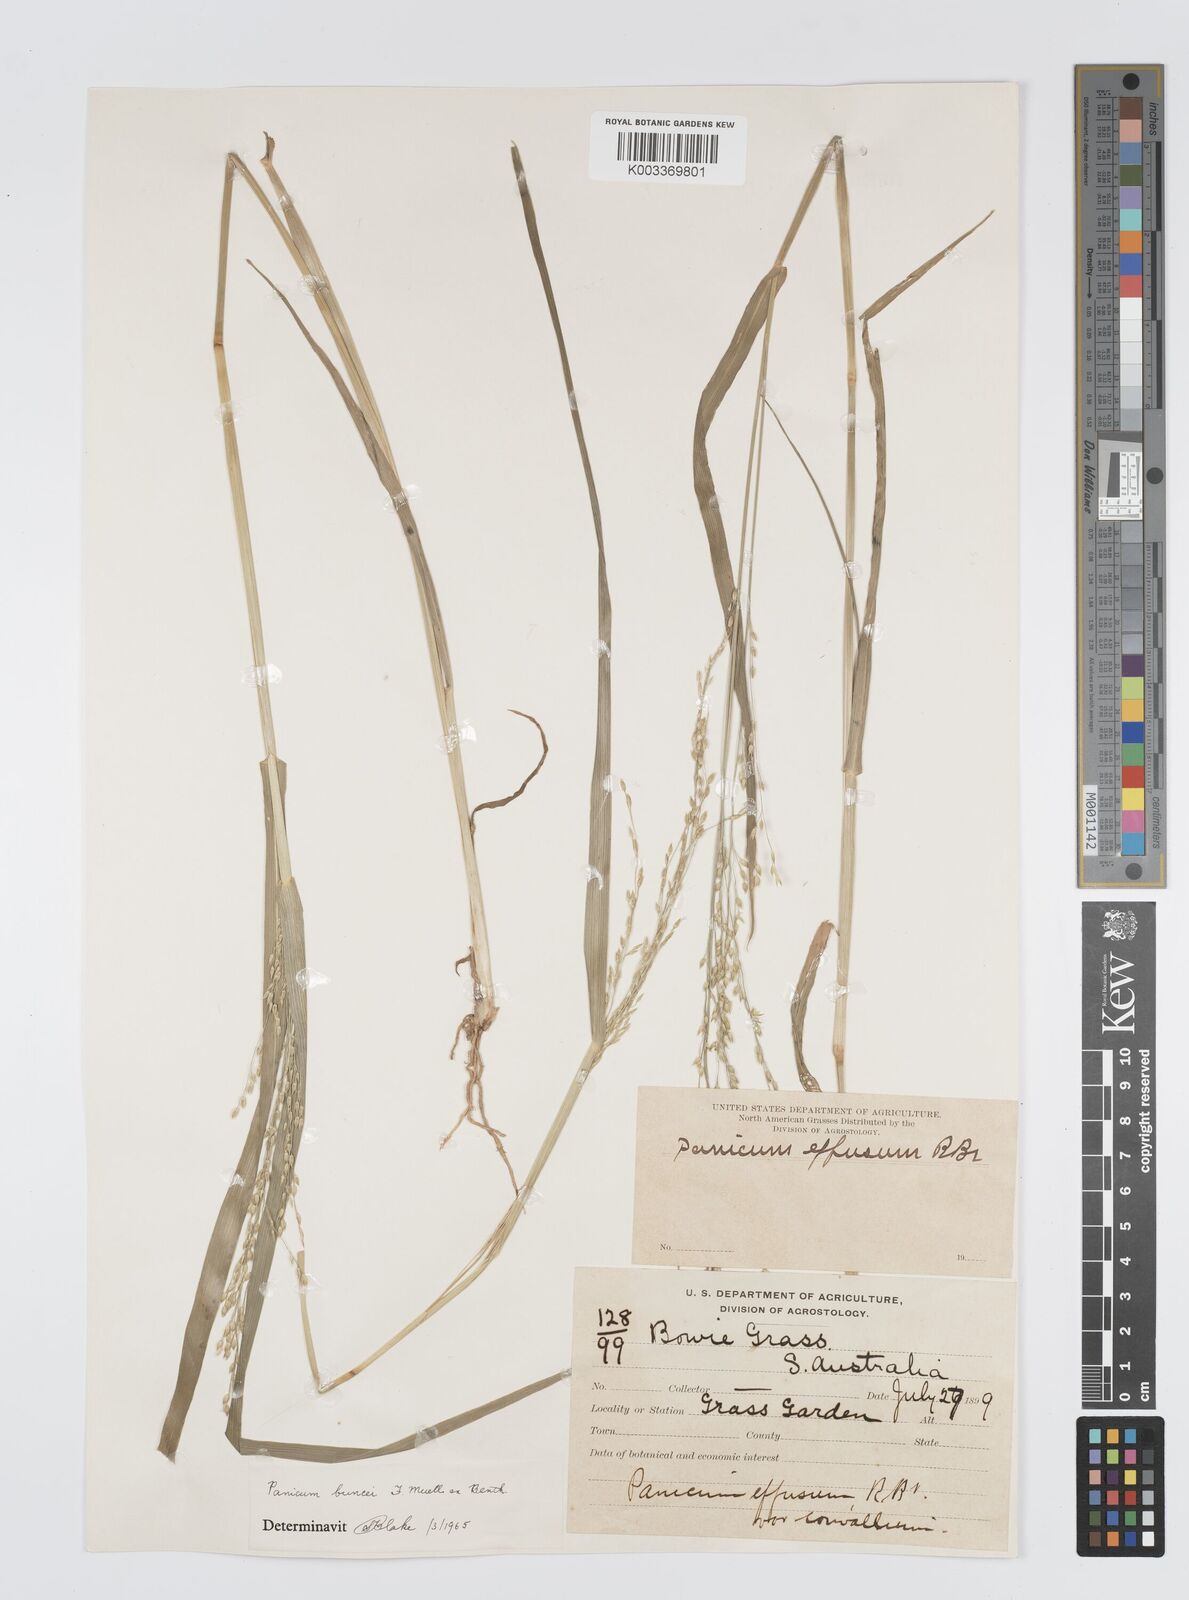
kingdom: Plantae
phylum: Tracheophyta
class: Liliopsida
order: Poales
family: Poaceae
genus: Panicum
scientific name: Panicum buncei
